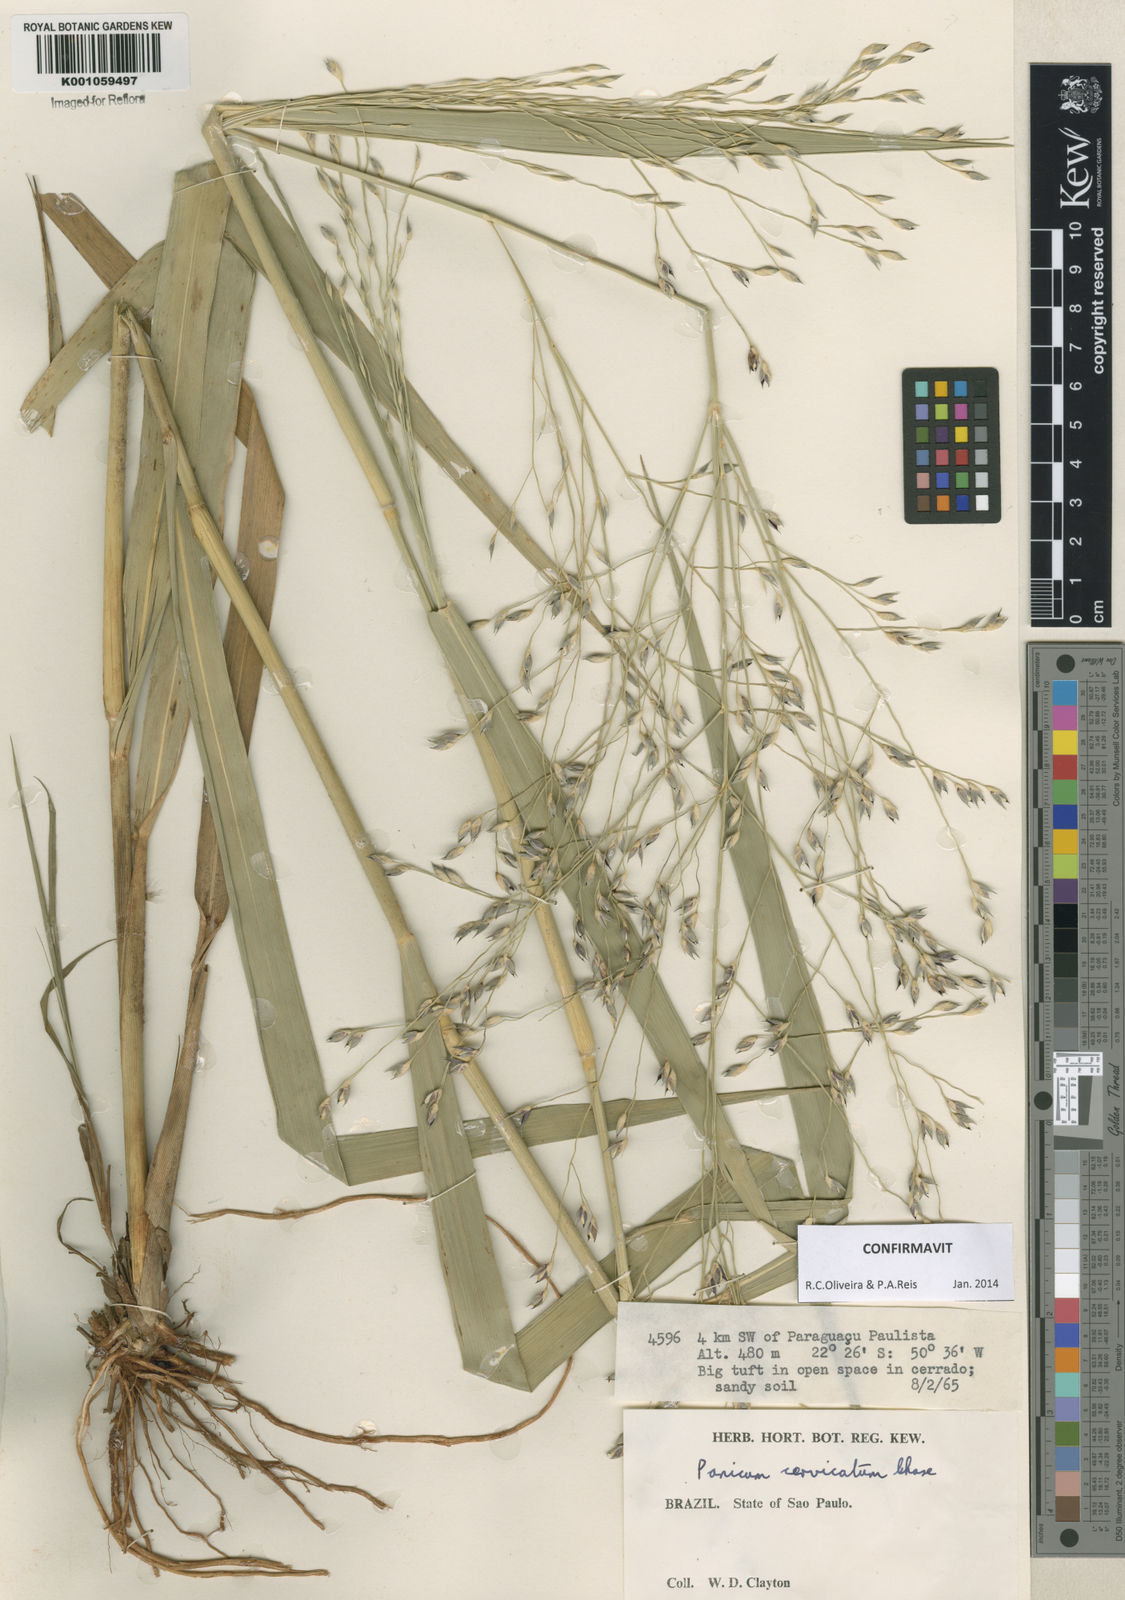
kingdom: Plantae
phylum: Tracheophyta
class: Liliopsida
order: Poales
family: Poaceae
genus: Panicum
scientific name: Panicum cervicatum
